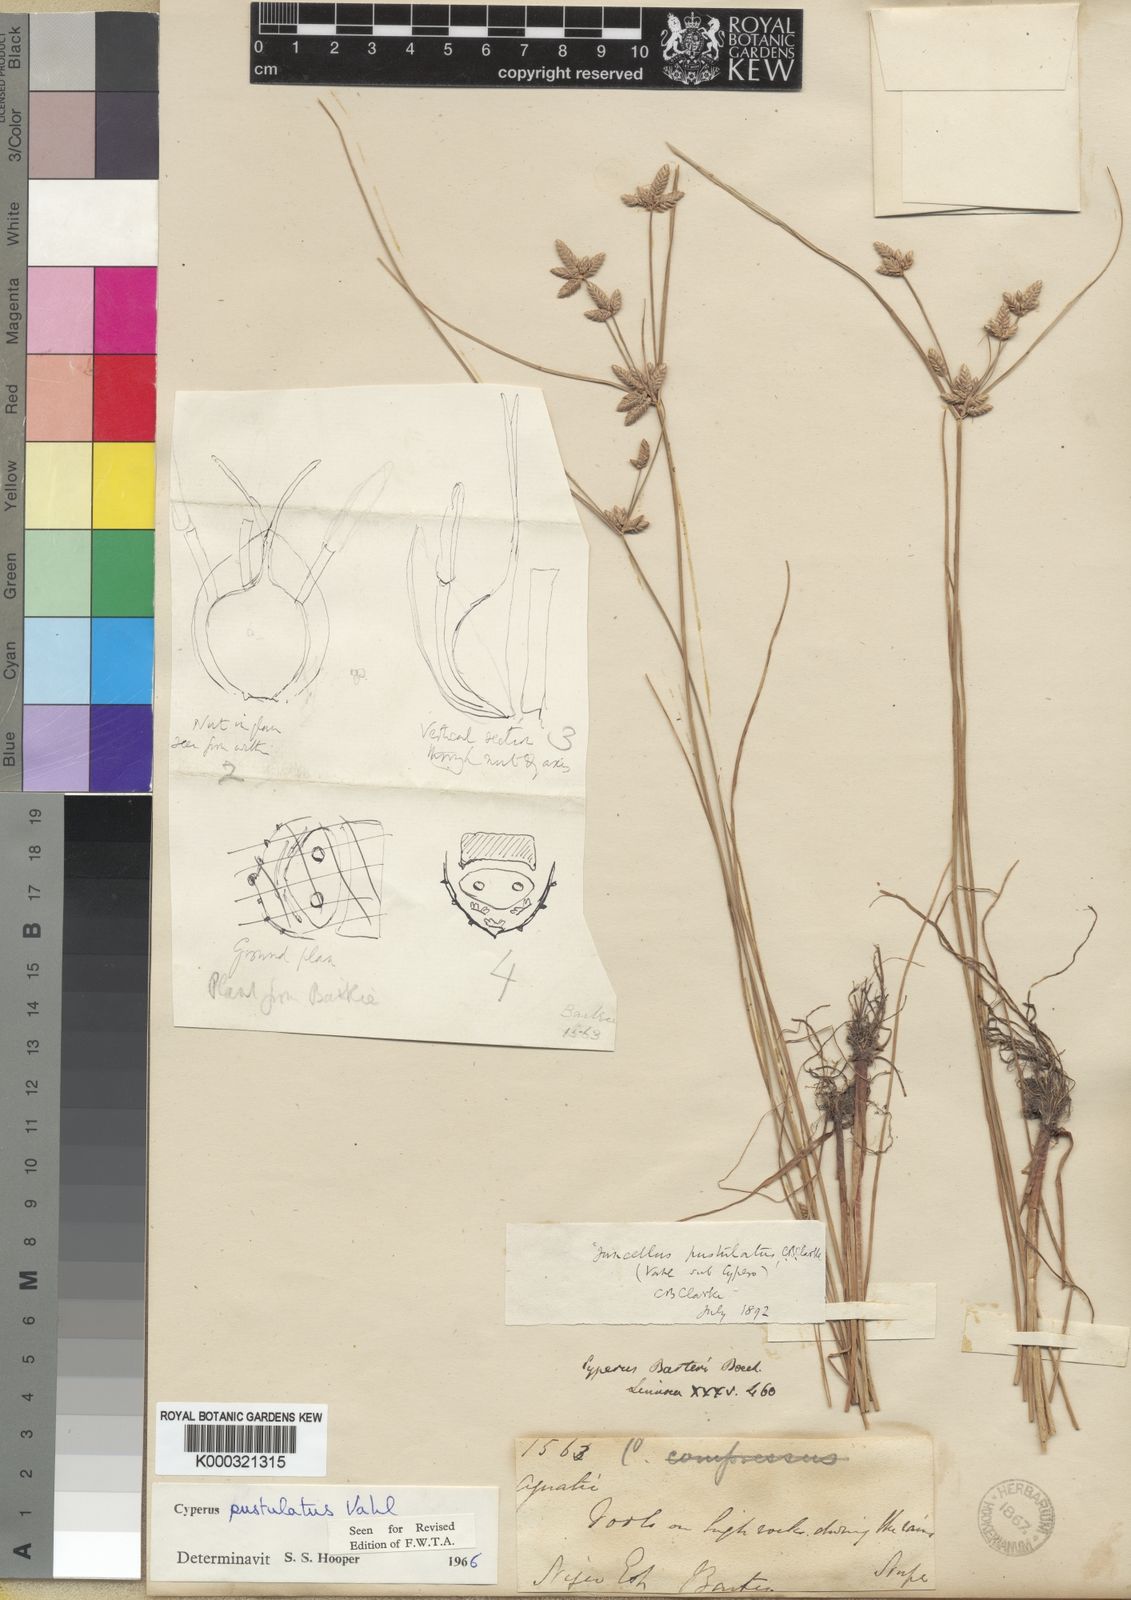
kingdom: Plantae
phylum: Tracheophyta
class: Liliopsida
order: Poales
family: Cyperaceae
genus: Cyperus
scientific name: Cyperus pustulatus
